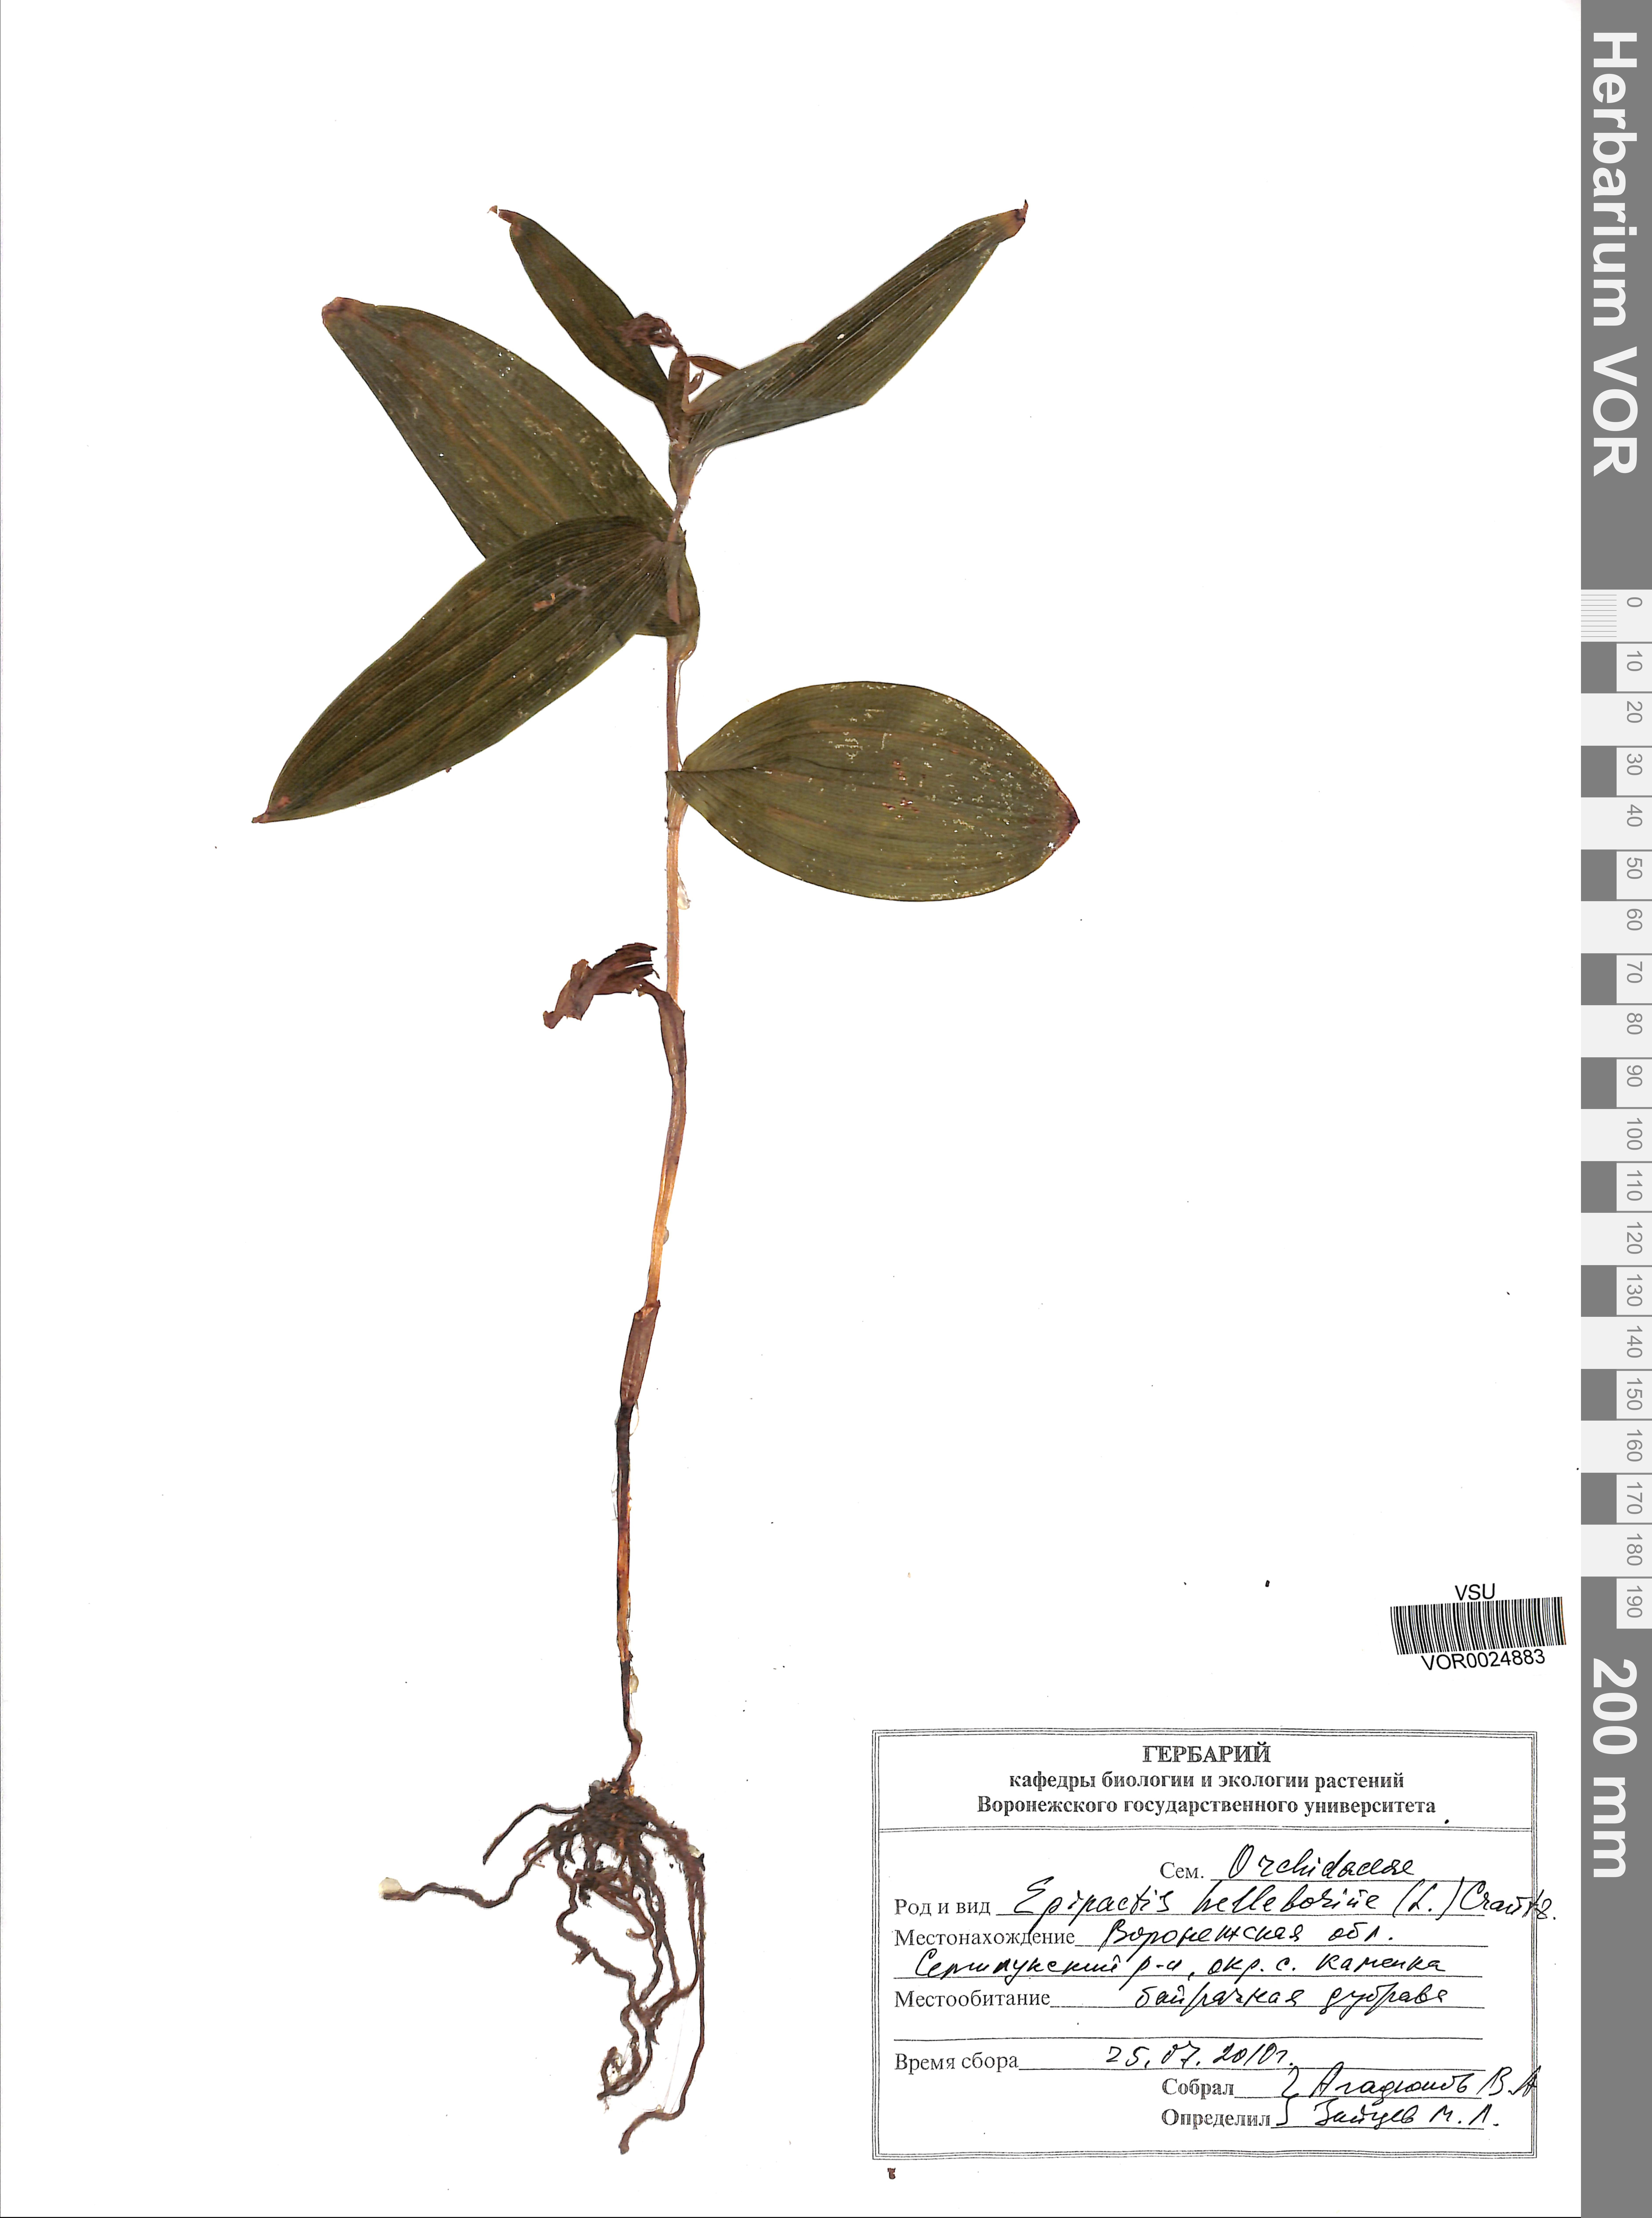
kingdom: Plantae
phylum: Tracheophyta
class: Liliopsida
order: Asparagales
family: Orchidaceae
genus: Epipactis
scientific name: Epipactis helleborine
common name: Broad-leaved helleborine
